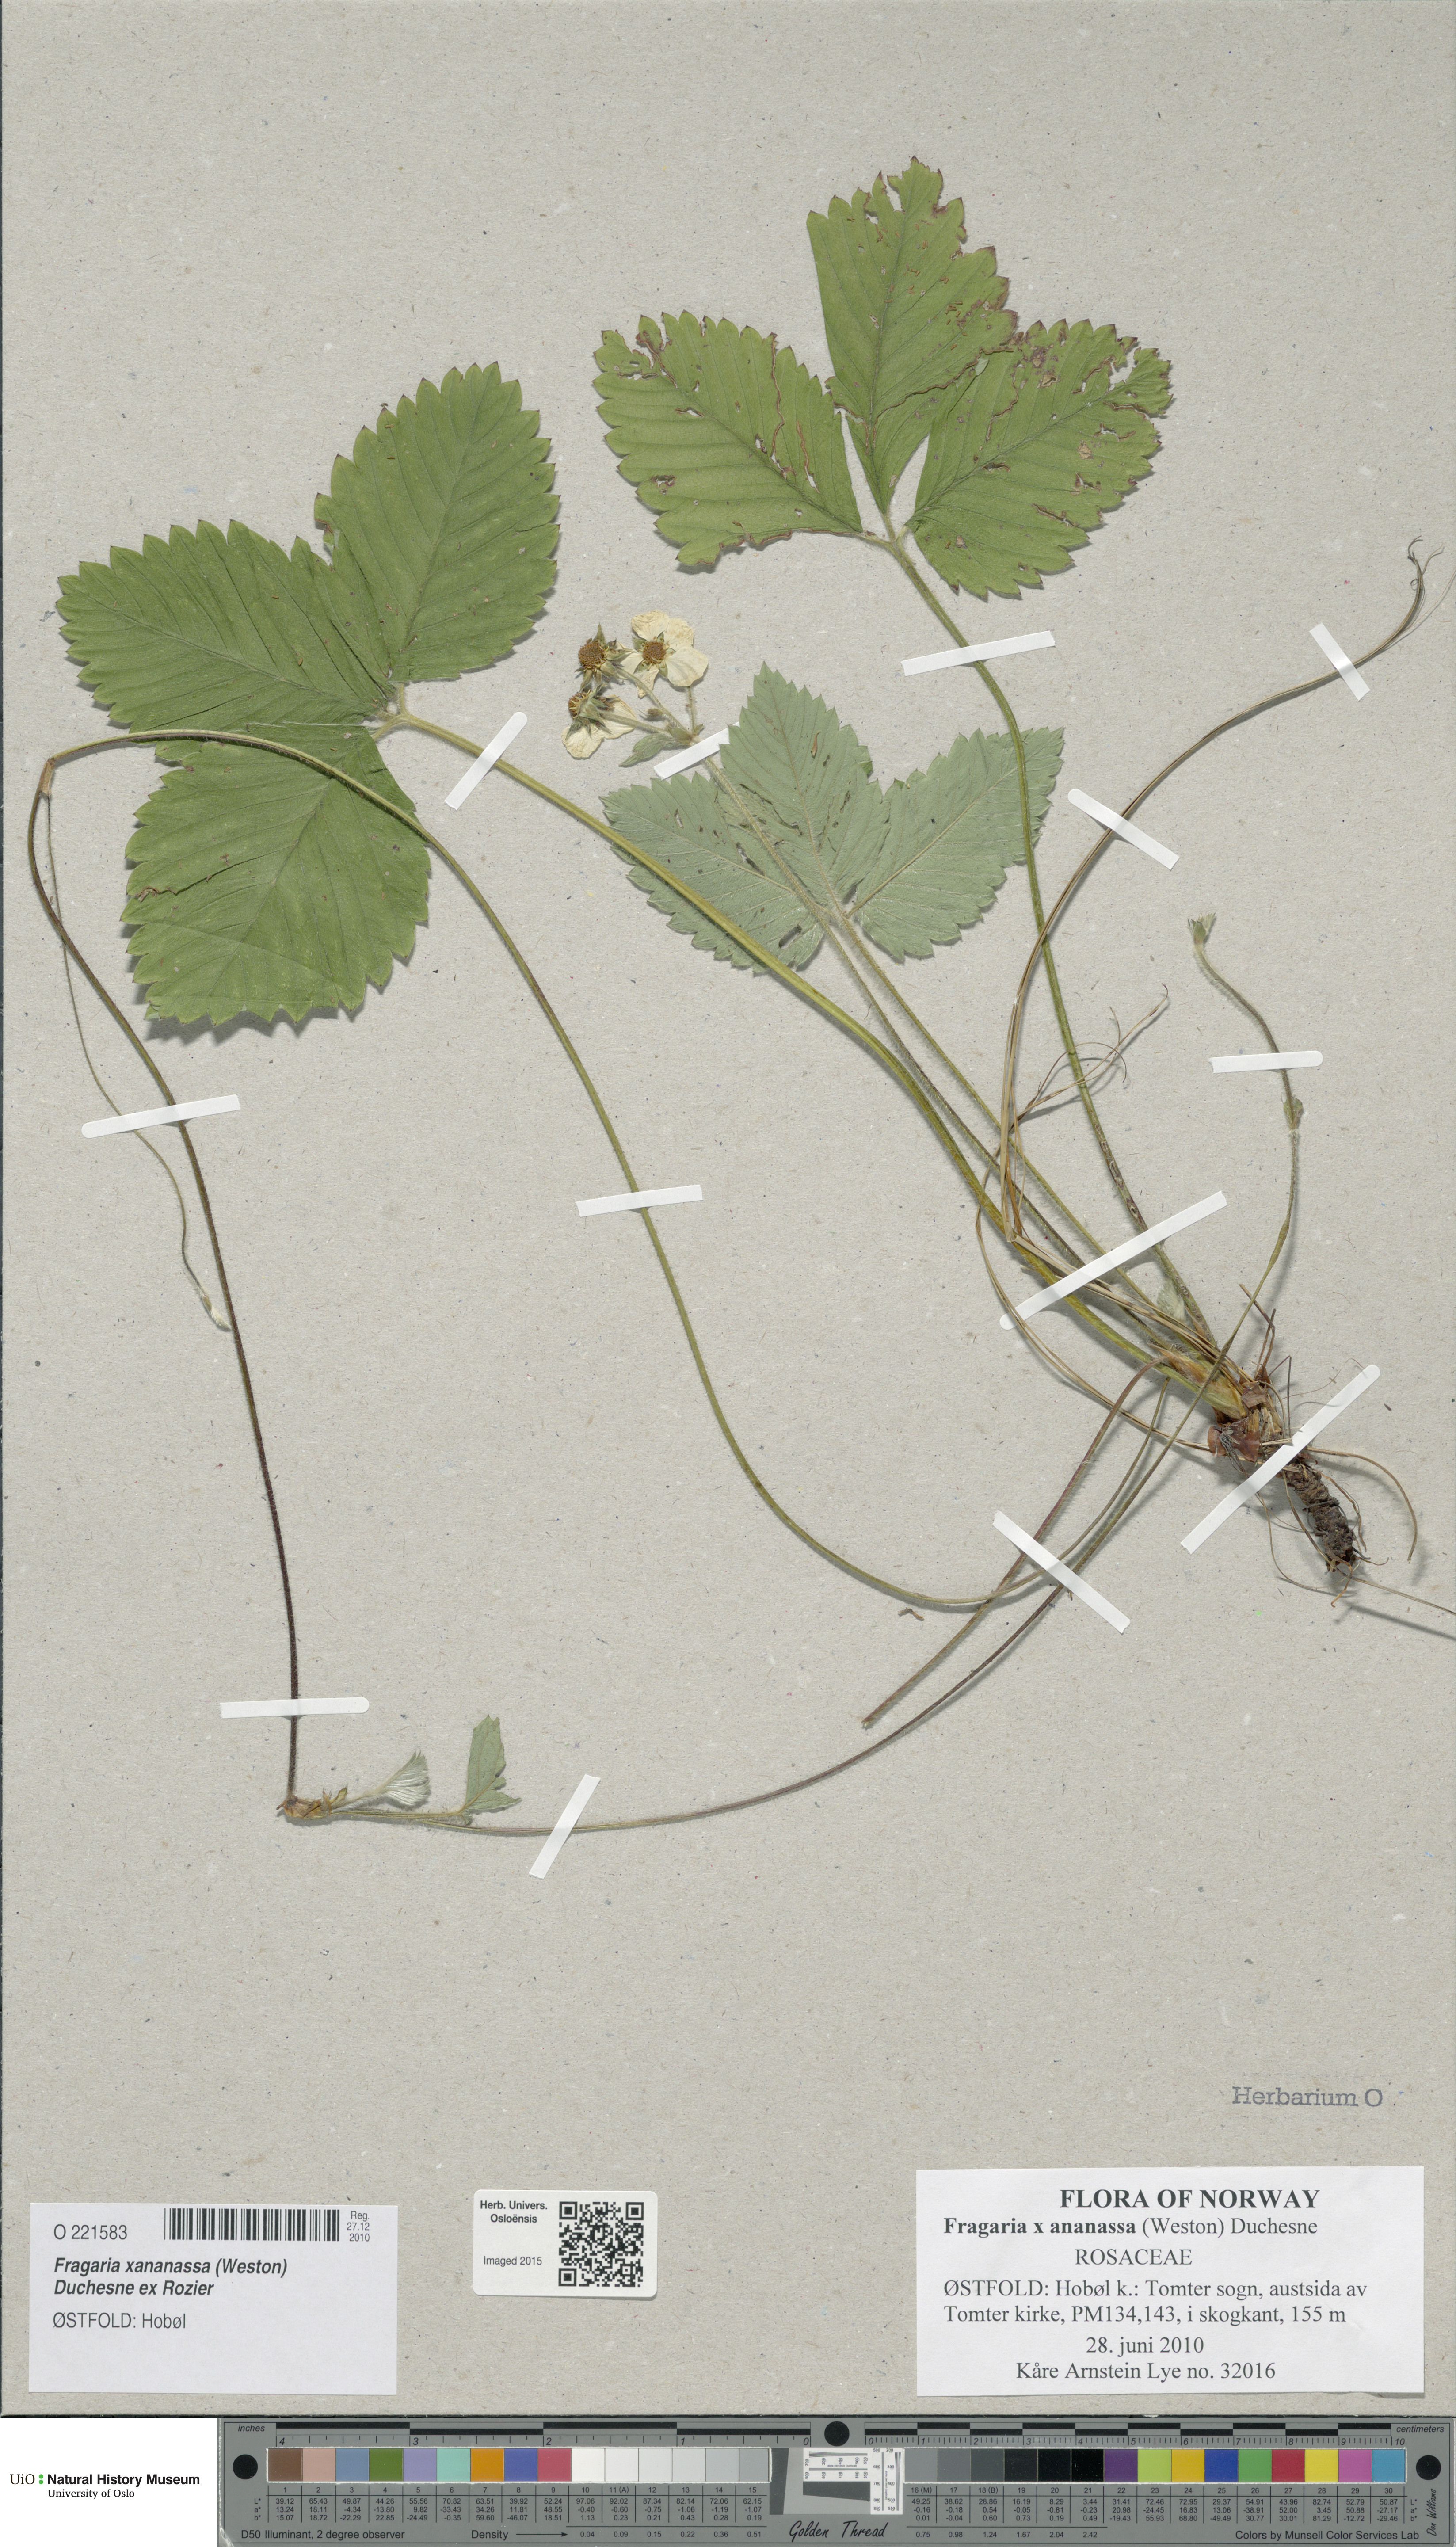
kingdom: Plantae
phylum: Tracheophyta
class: Magnoliopsida
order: Rosales
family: Rosaceae
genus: Fragaria
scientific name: Fragaria ananassa
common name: Garden strawberry
